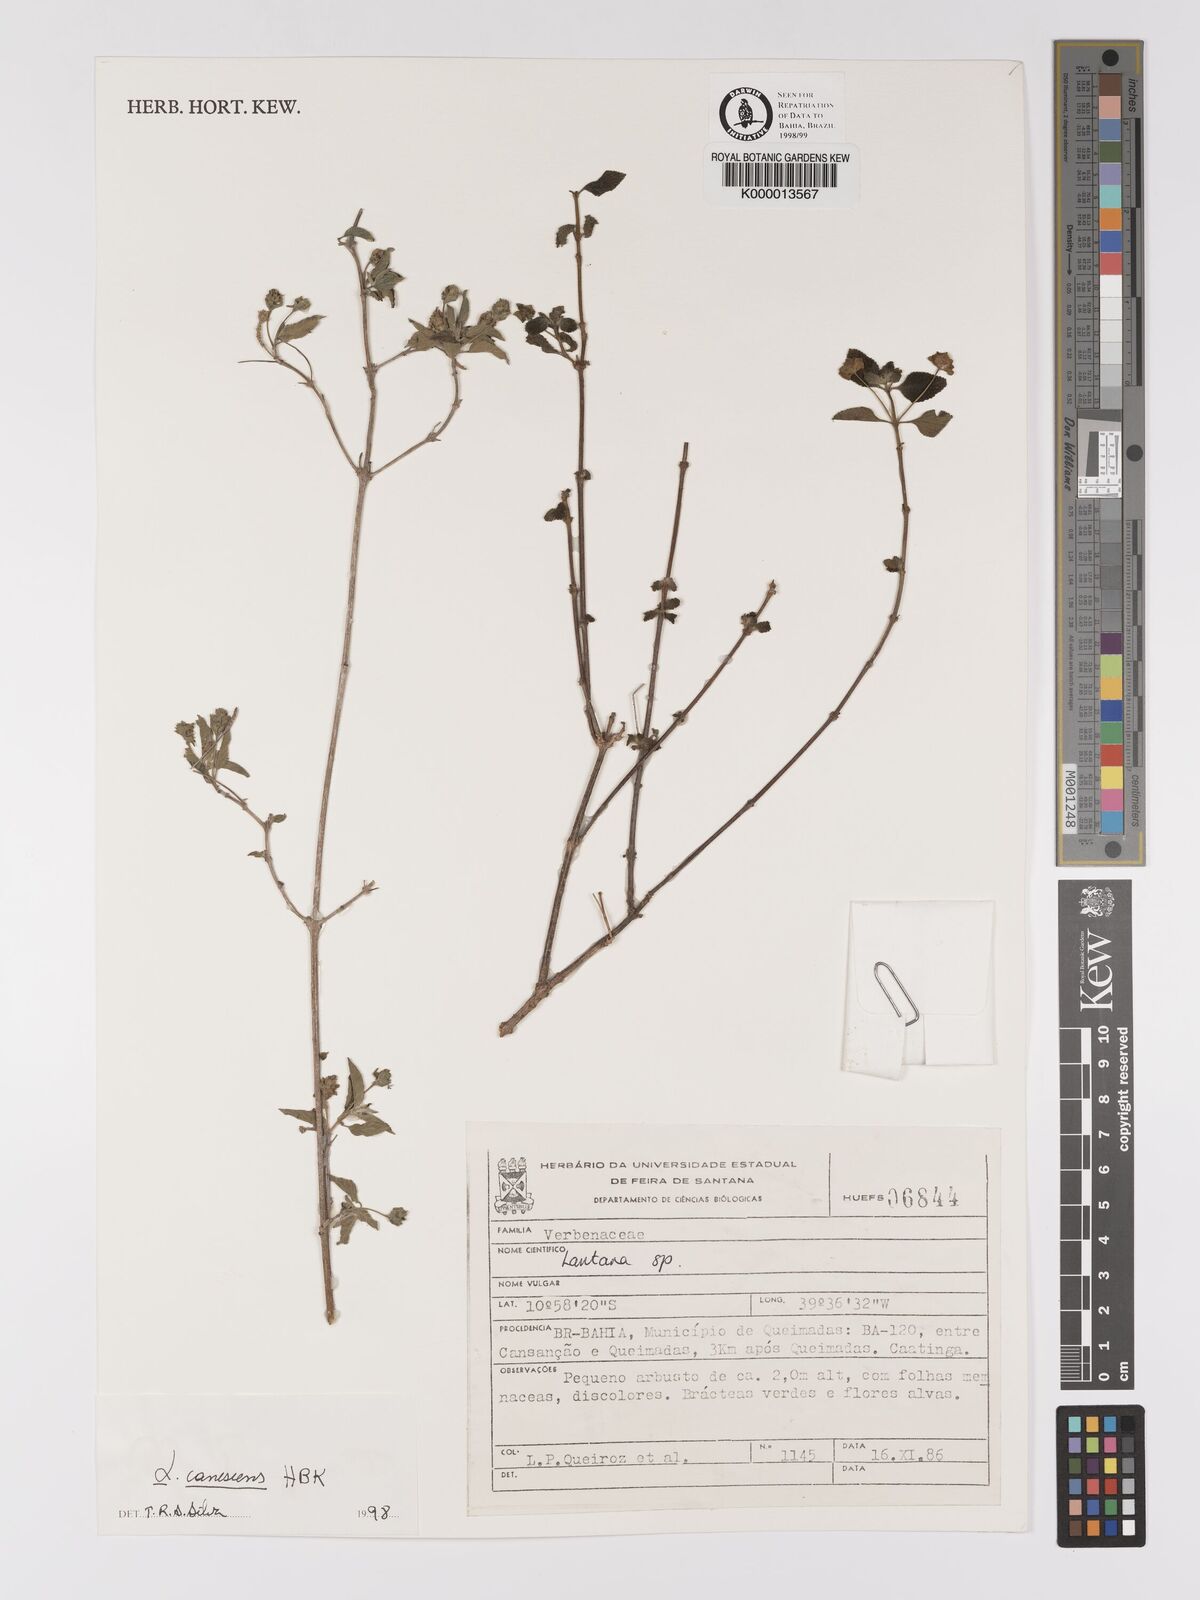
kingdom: Plantae
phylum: Tracheophyta
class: Magnoliopsida
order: Lamiales
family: Verbenaceae
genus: Lantana
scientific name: Lantana canescens
